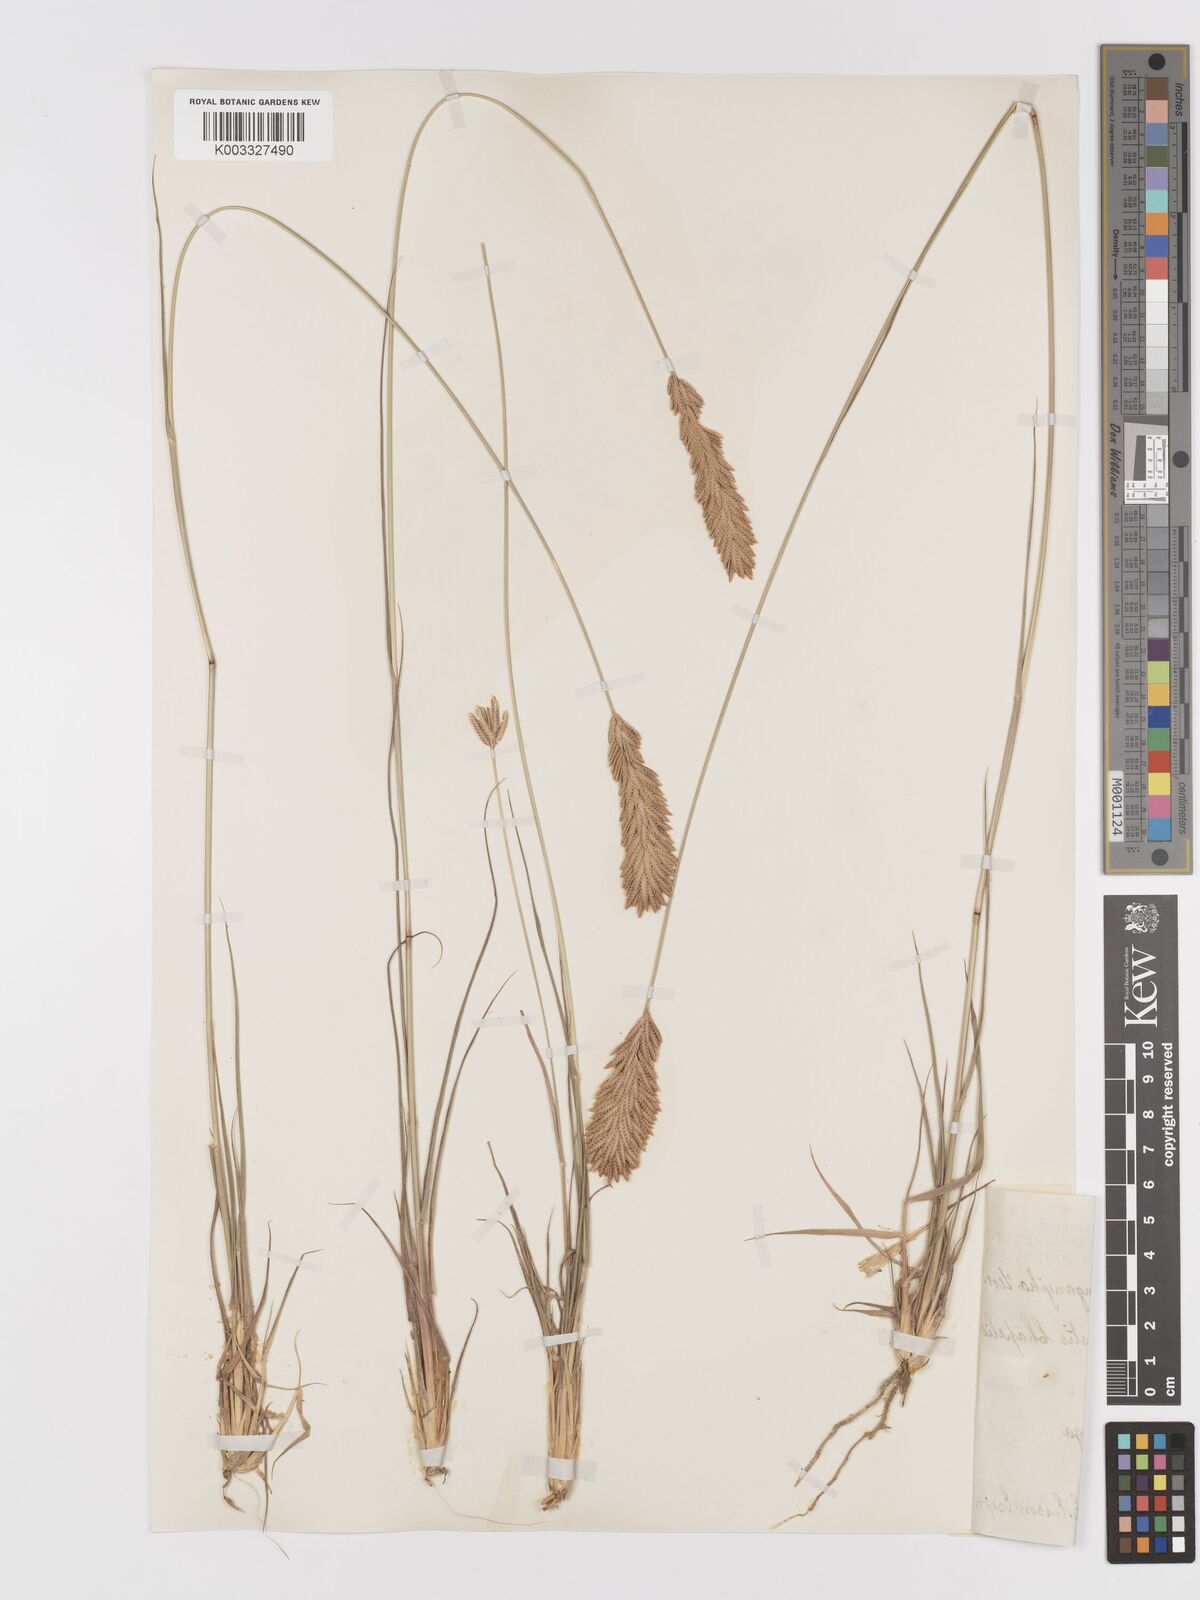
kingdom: Plantae
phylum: Tracheophyta
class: Liliopsida
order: Poales
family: Poaceae
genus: Eragrostis
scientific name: Eragrostis chapelieri
